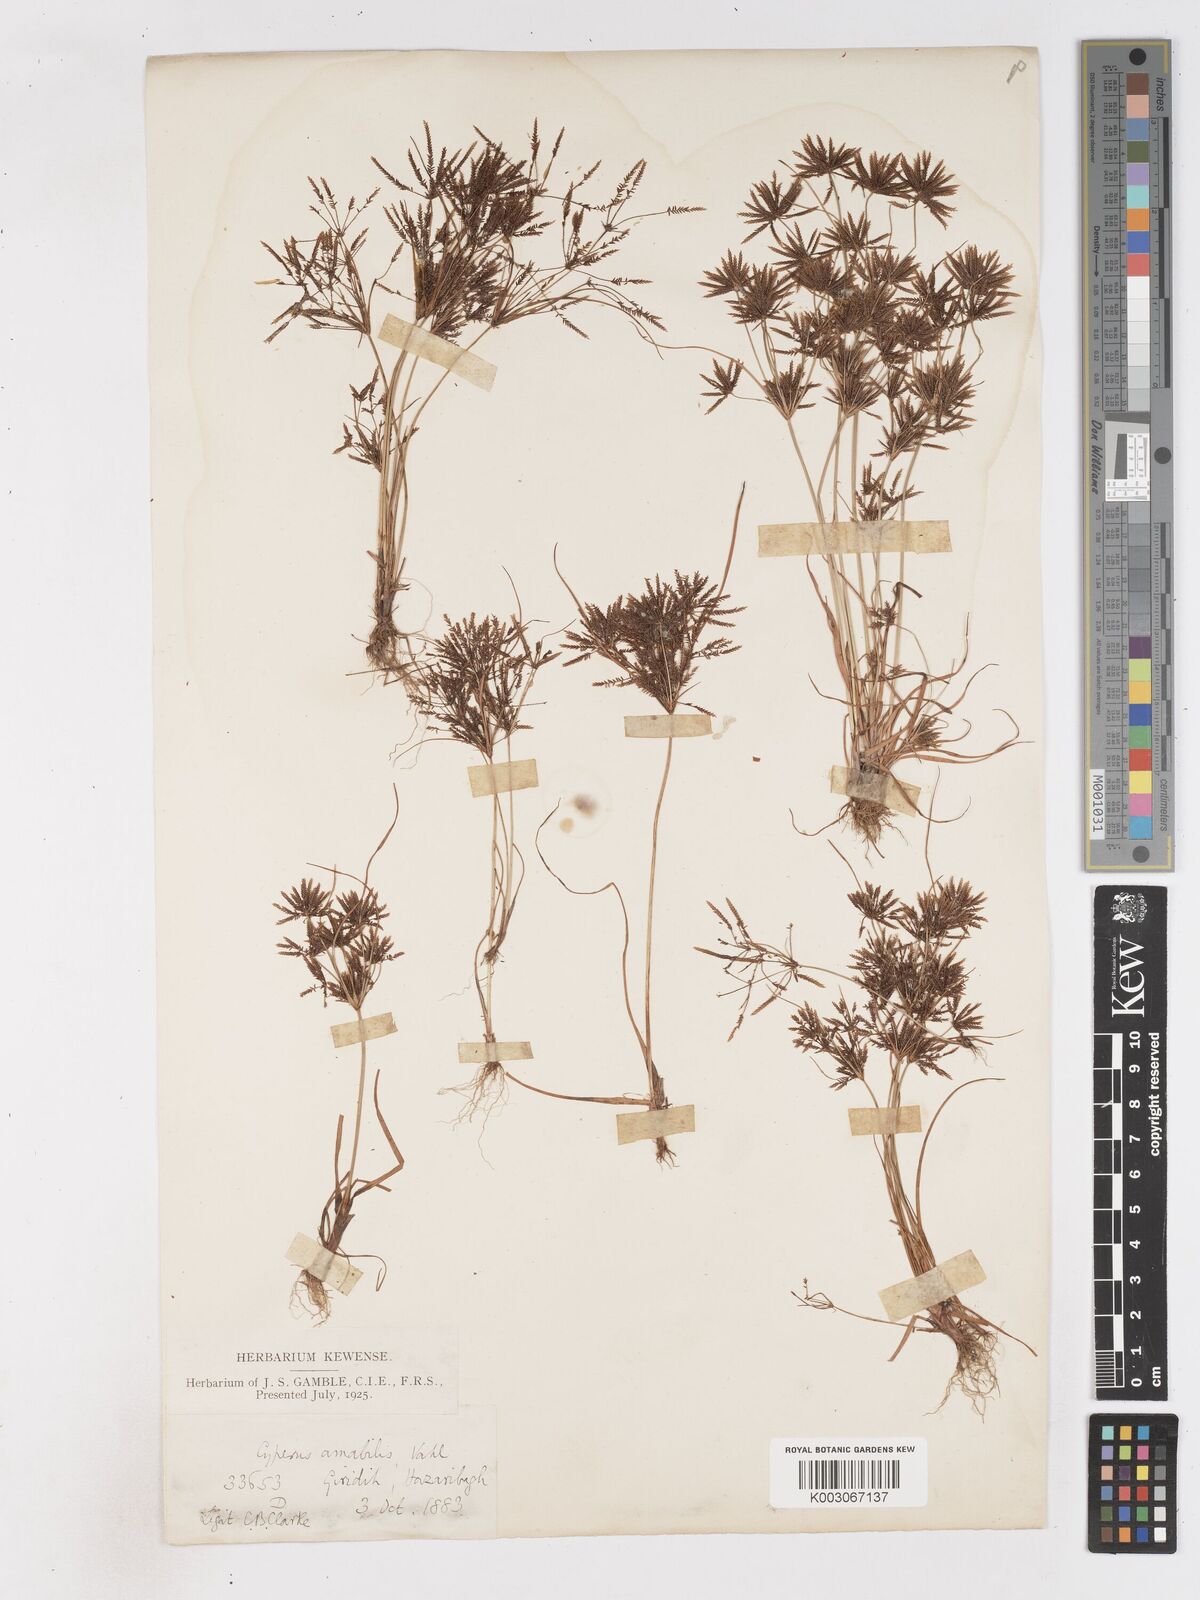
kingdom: Plantae
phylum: Tracheophyta
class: Liliopsida
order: Poales
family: Cyperaceae
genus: Cyperus
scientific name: Cyperus amabilis
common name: Foothill flat sedge
